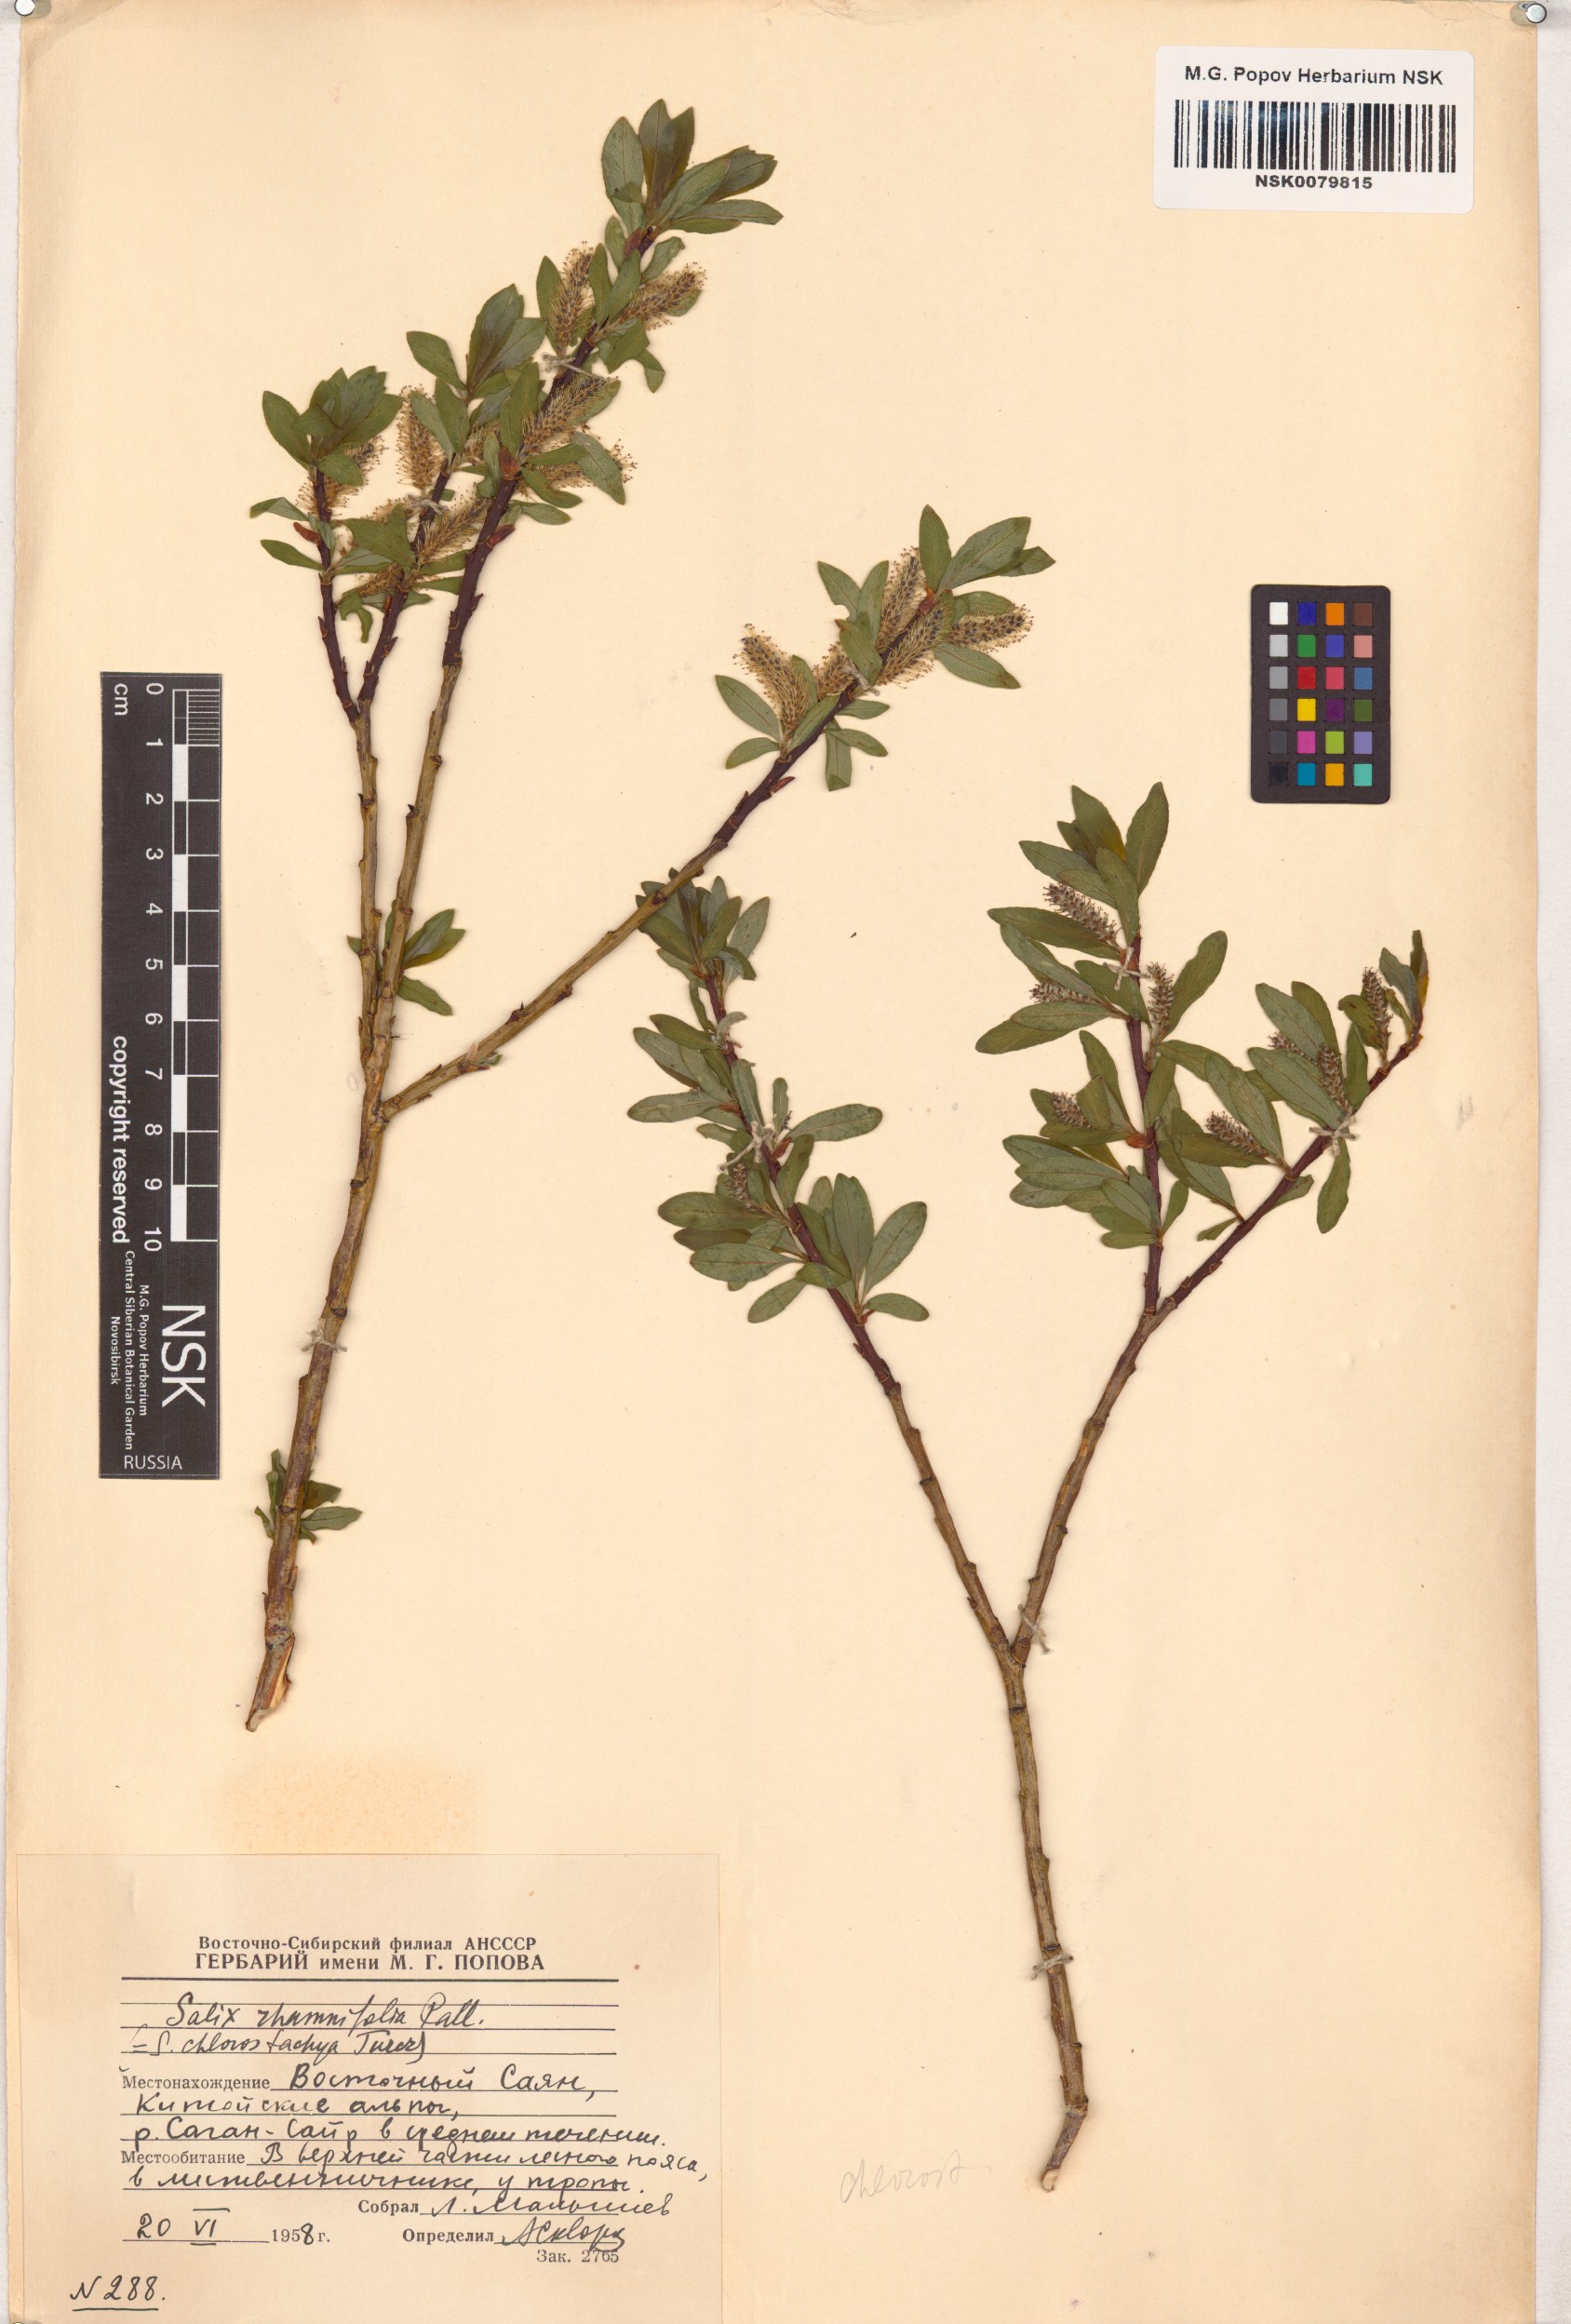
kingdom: Plantae
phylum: Tracheophyta
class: Magnoliopsida
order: Malpighiales
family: Salicaceae
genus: Salix
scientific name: Salix rhamnifolia
